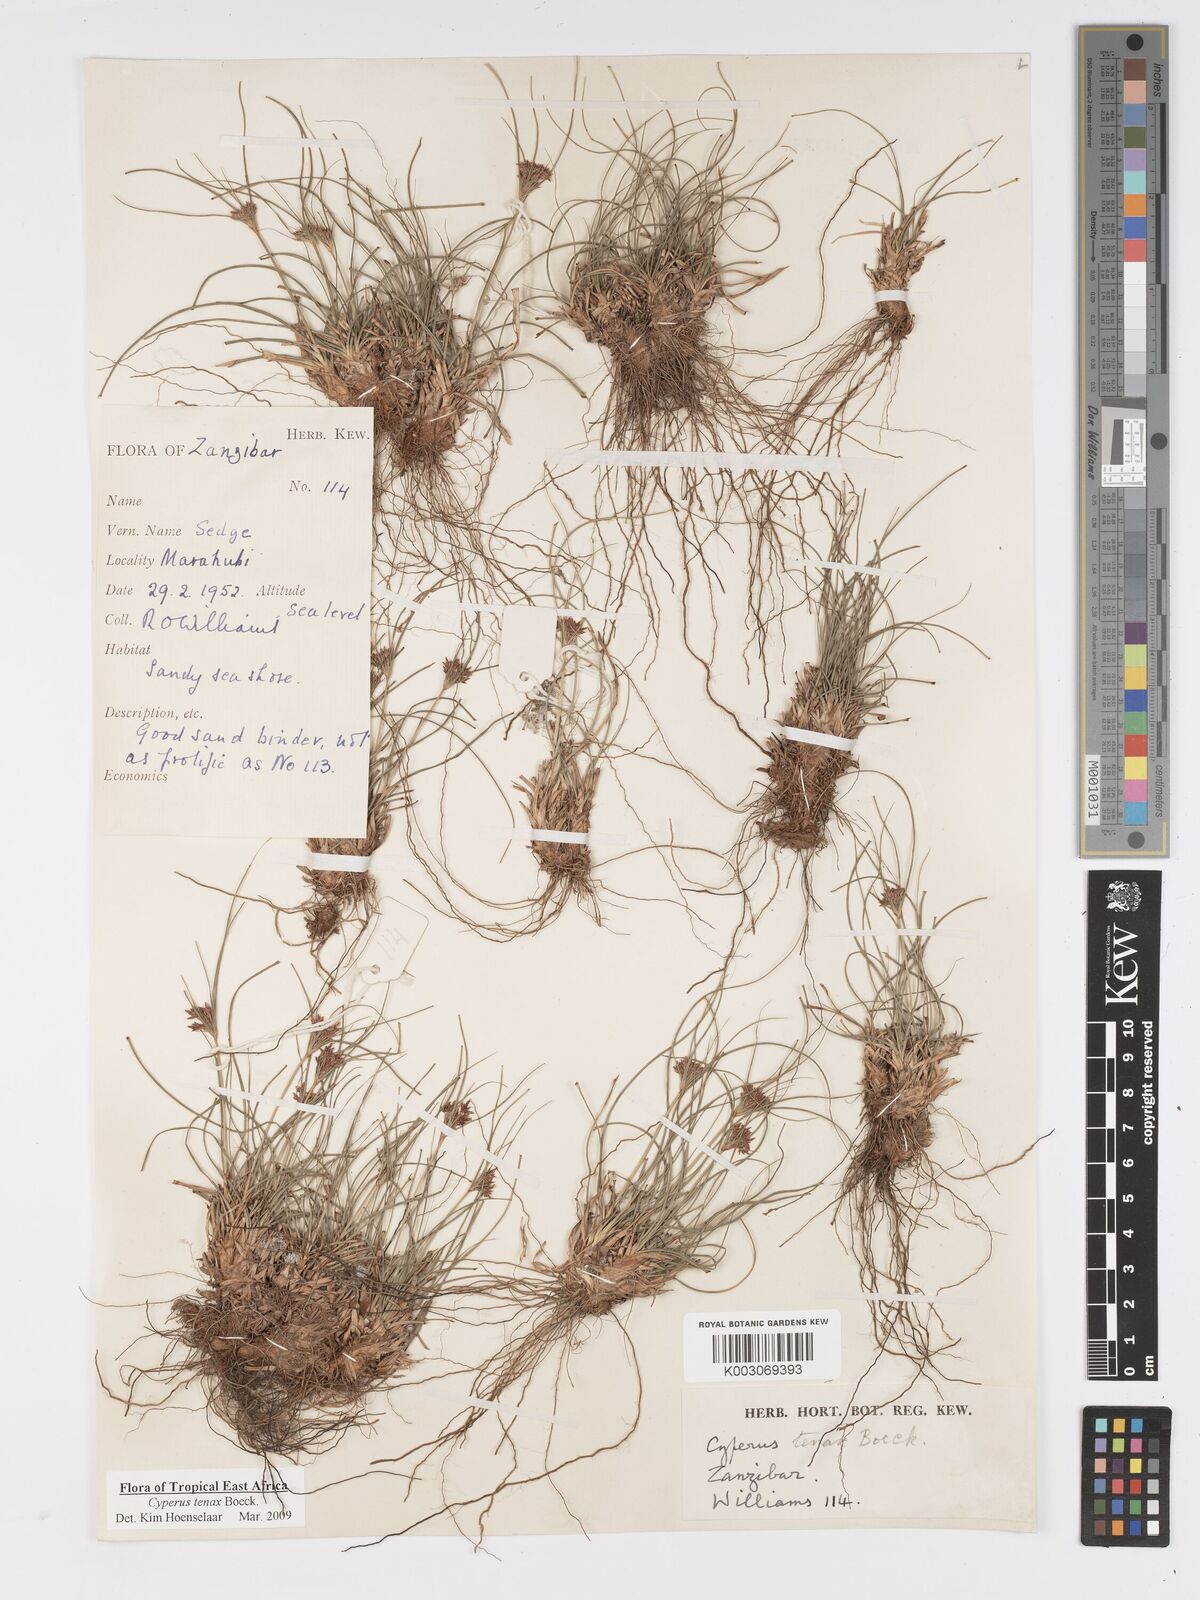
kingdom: Plantae
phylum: Tracheophyta
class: Liliopsida
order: Poales
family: Cyperaceae
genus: Cyperus
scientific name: Cyperus tenax
